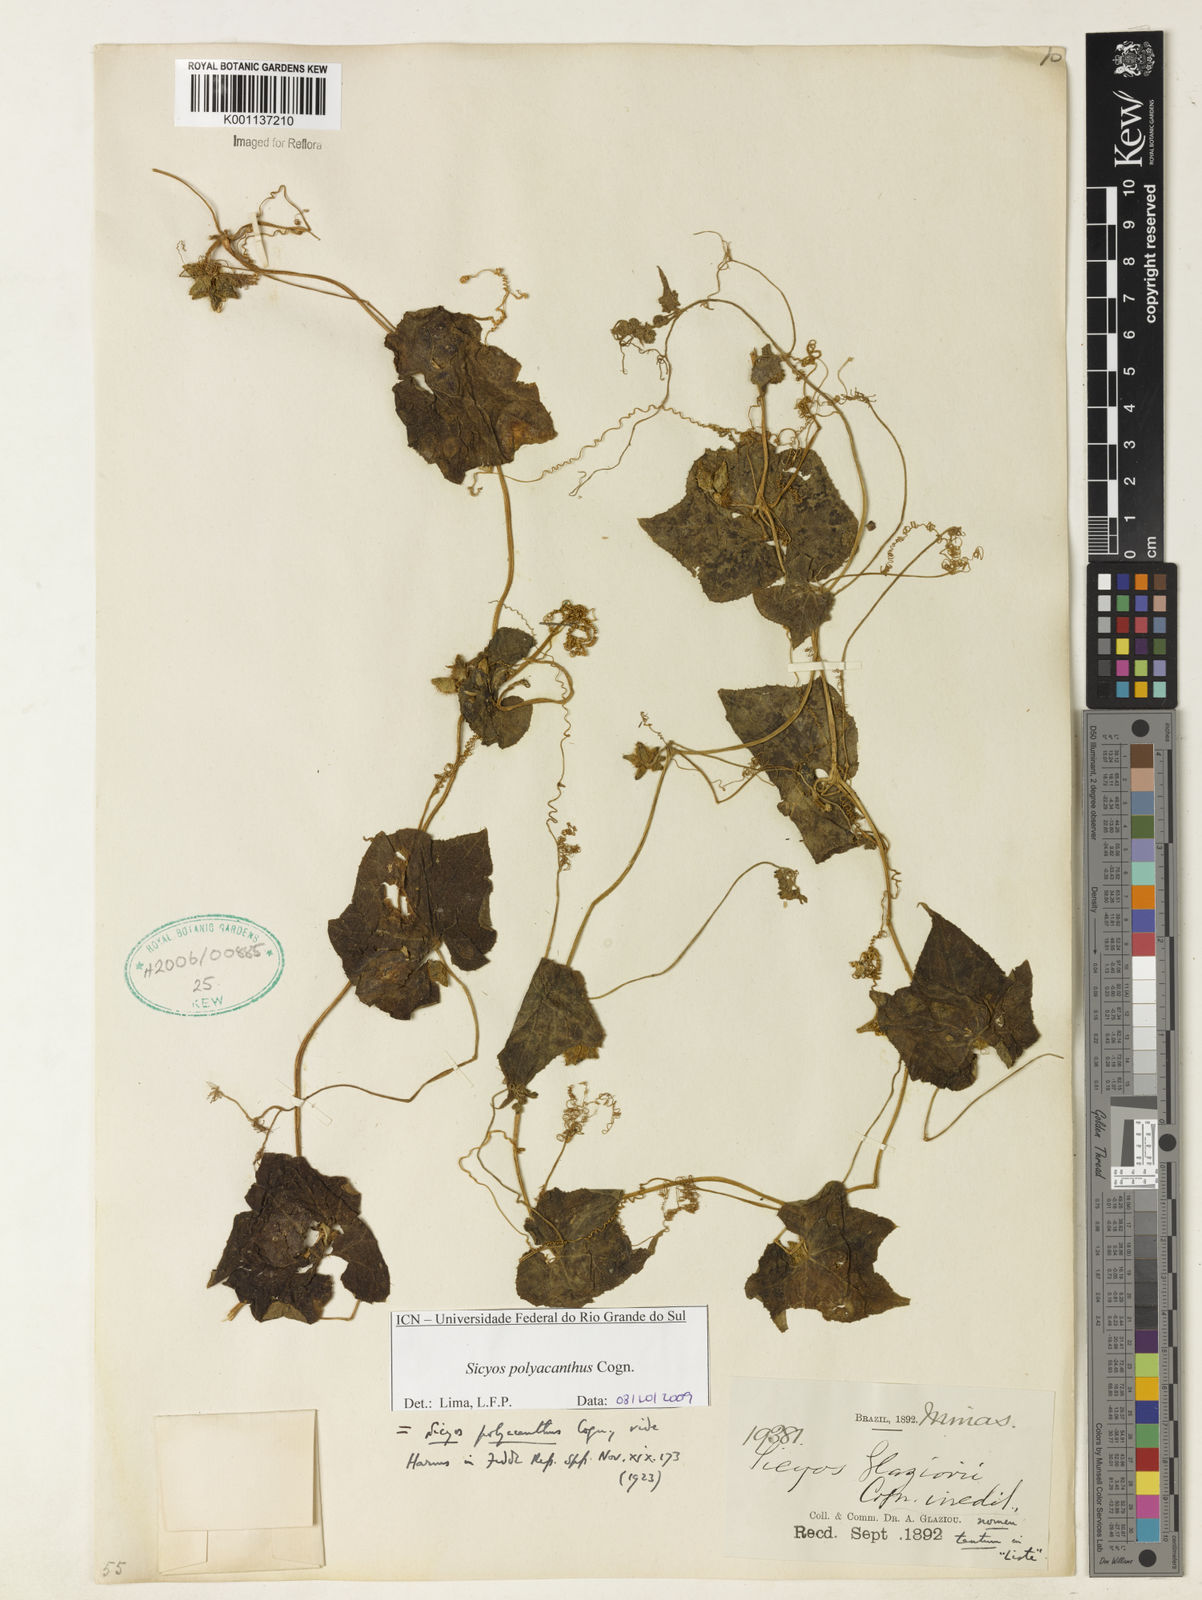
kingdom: Plantae
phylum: Tracheophyta
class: Magnoliopsida
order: Cucurbitales
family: Cucurbitaceae
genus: Sicyos
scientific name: Sicyos polyacanthos
